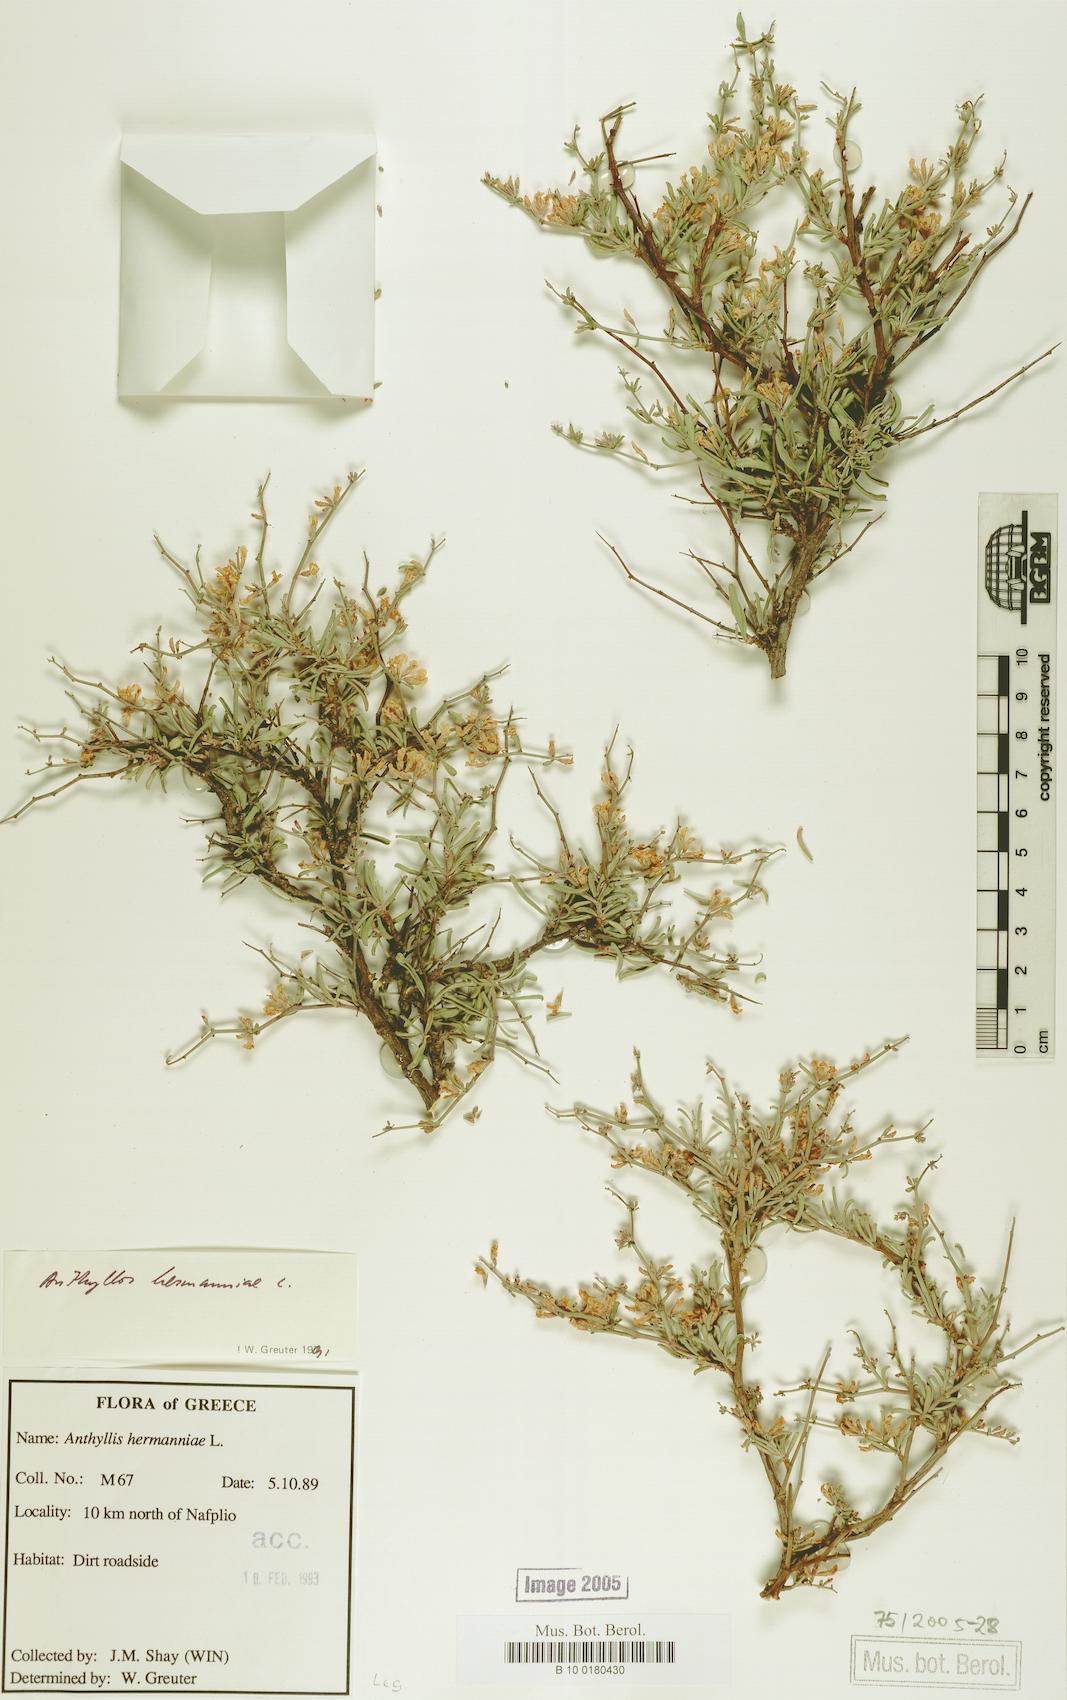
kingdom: Plantae
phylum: Tracheophyta
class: Magnoliopsida
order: Fabales
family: Fabaceae
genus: Anthyllis
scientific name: Anthyllis hermanniae
